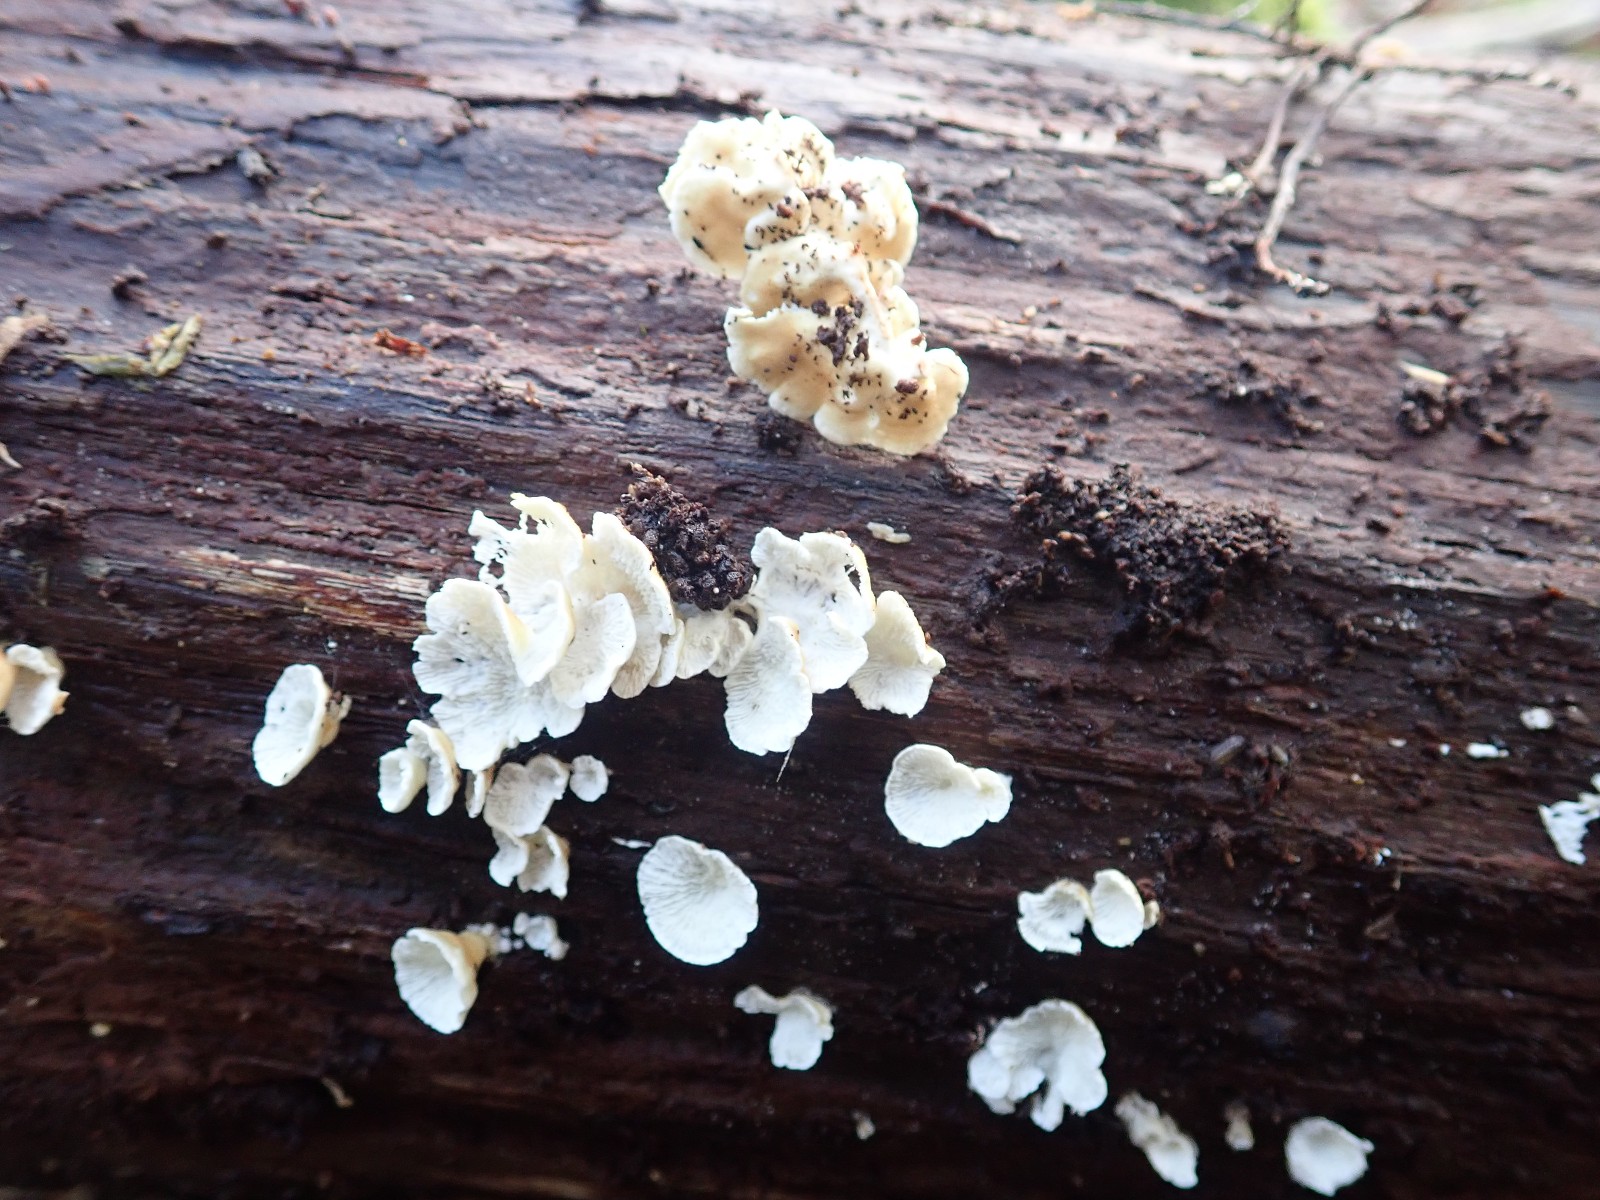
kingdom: Fungi
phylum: Basidiomycota
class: Agaricomycetes
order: Amylocorticiales
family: Amylocorticiaceae
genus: Plicaturopsis
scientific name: Plicaturopsis crispa
